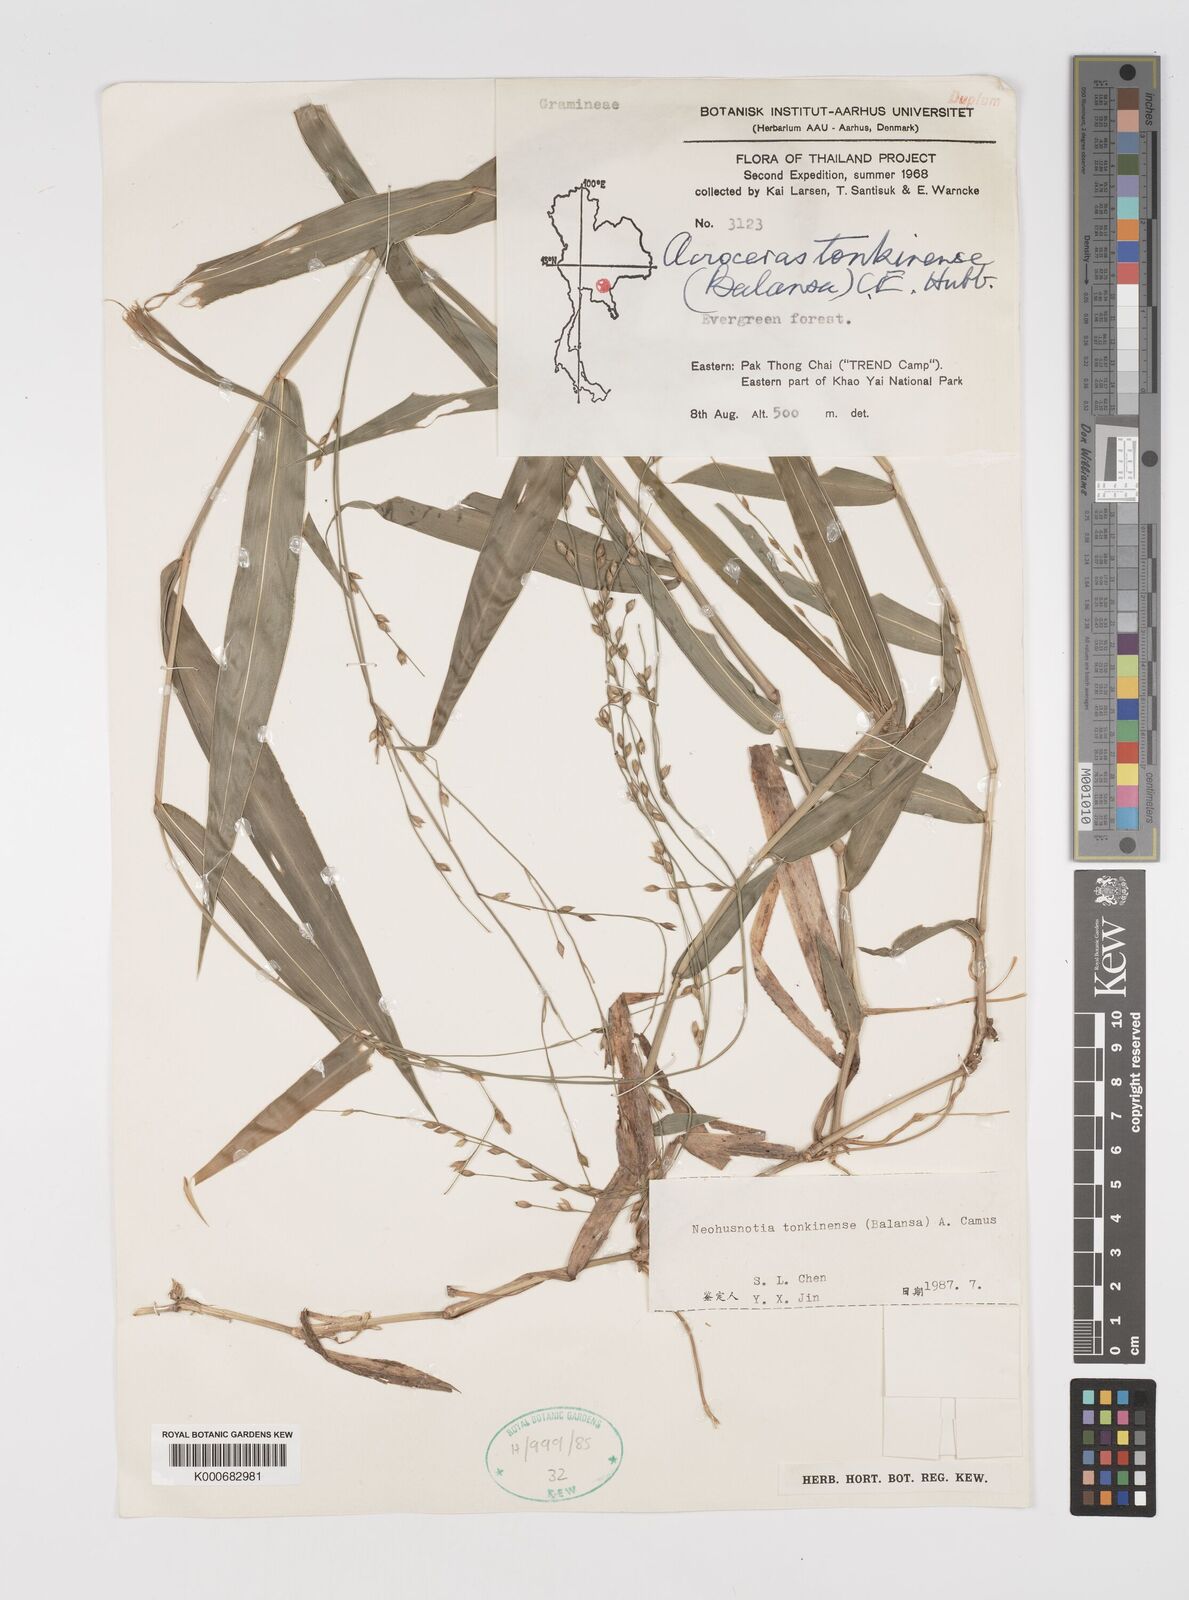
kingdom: Plantae
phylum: Tracheophyta
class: Liliopsida
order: Poales
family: Poaceae
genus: Acroceras
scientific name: Acroceras
